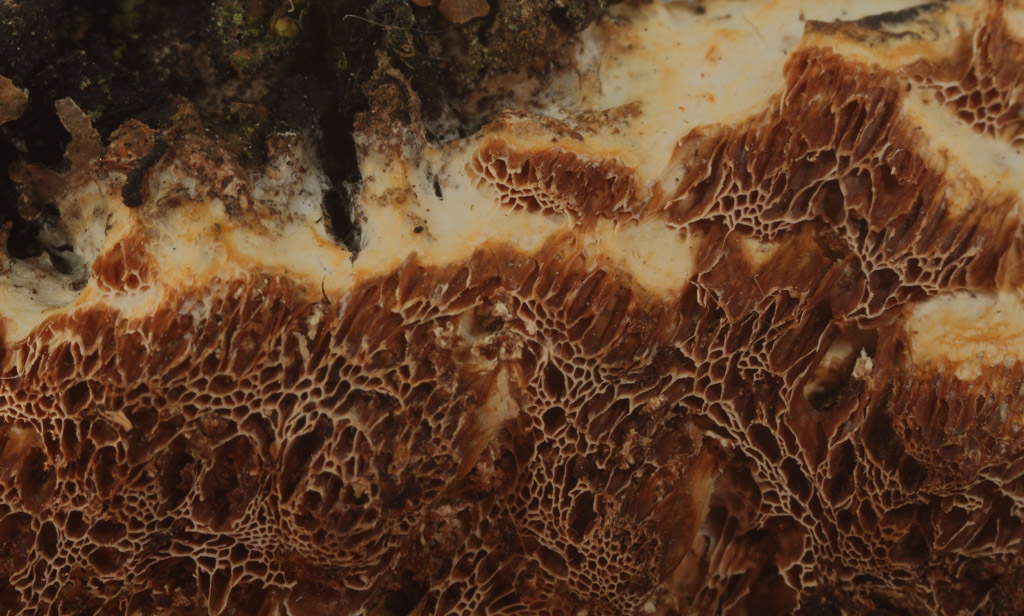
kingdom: Fungi
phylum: Basidiomycota
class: Agaricomycetes
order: Polyporales
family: Irpicaceae
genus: Resiniporus
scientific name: Resiniporus resinascens
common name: trist pastelporesvamp
